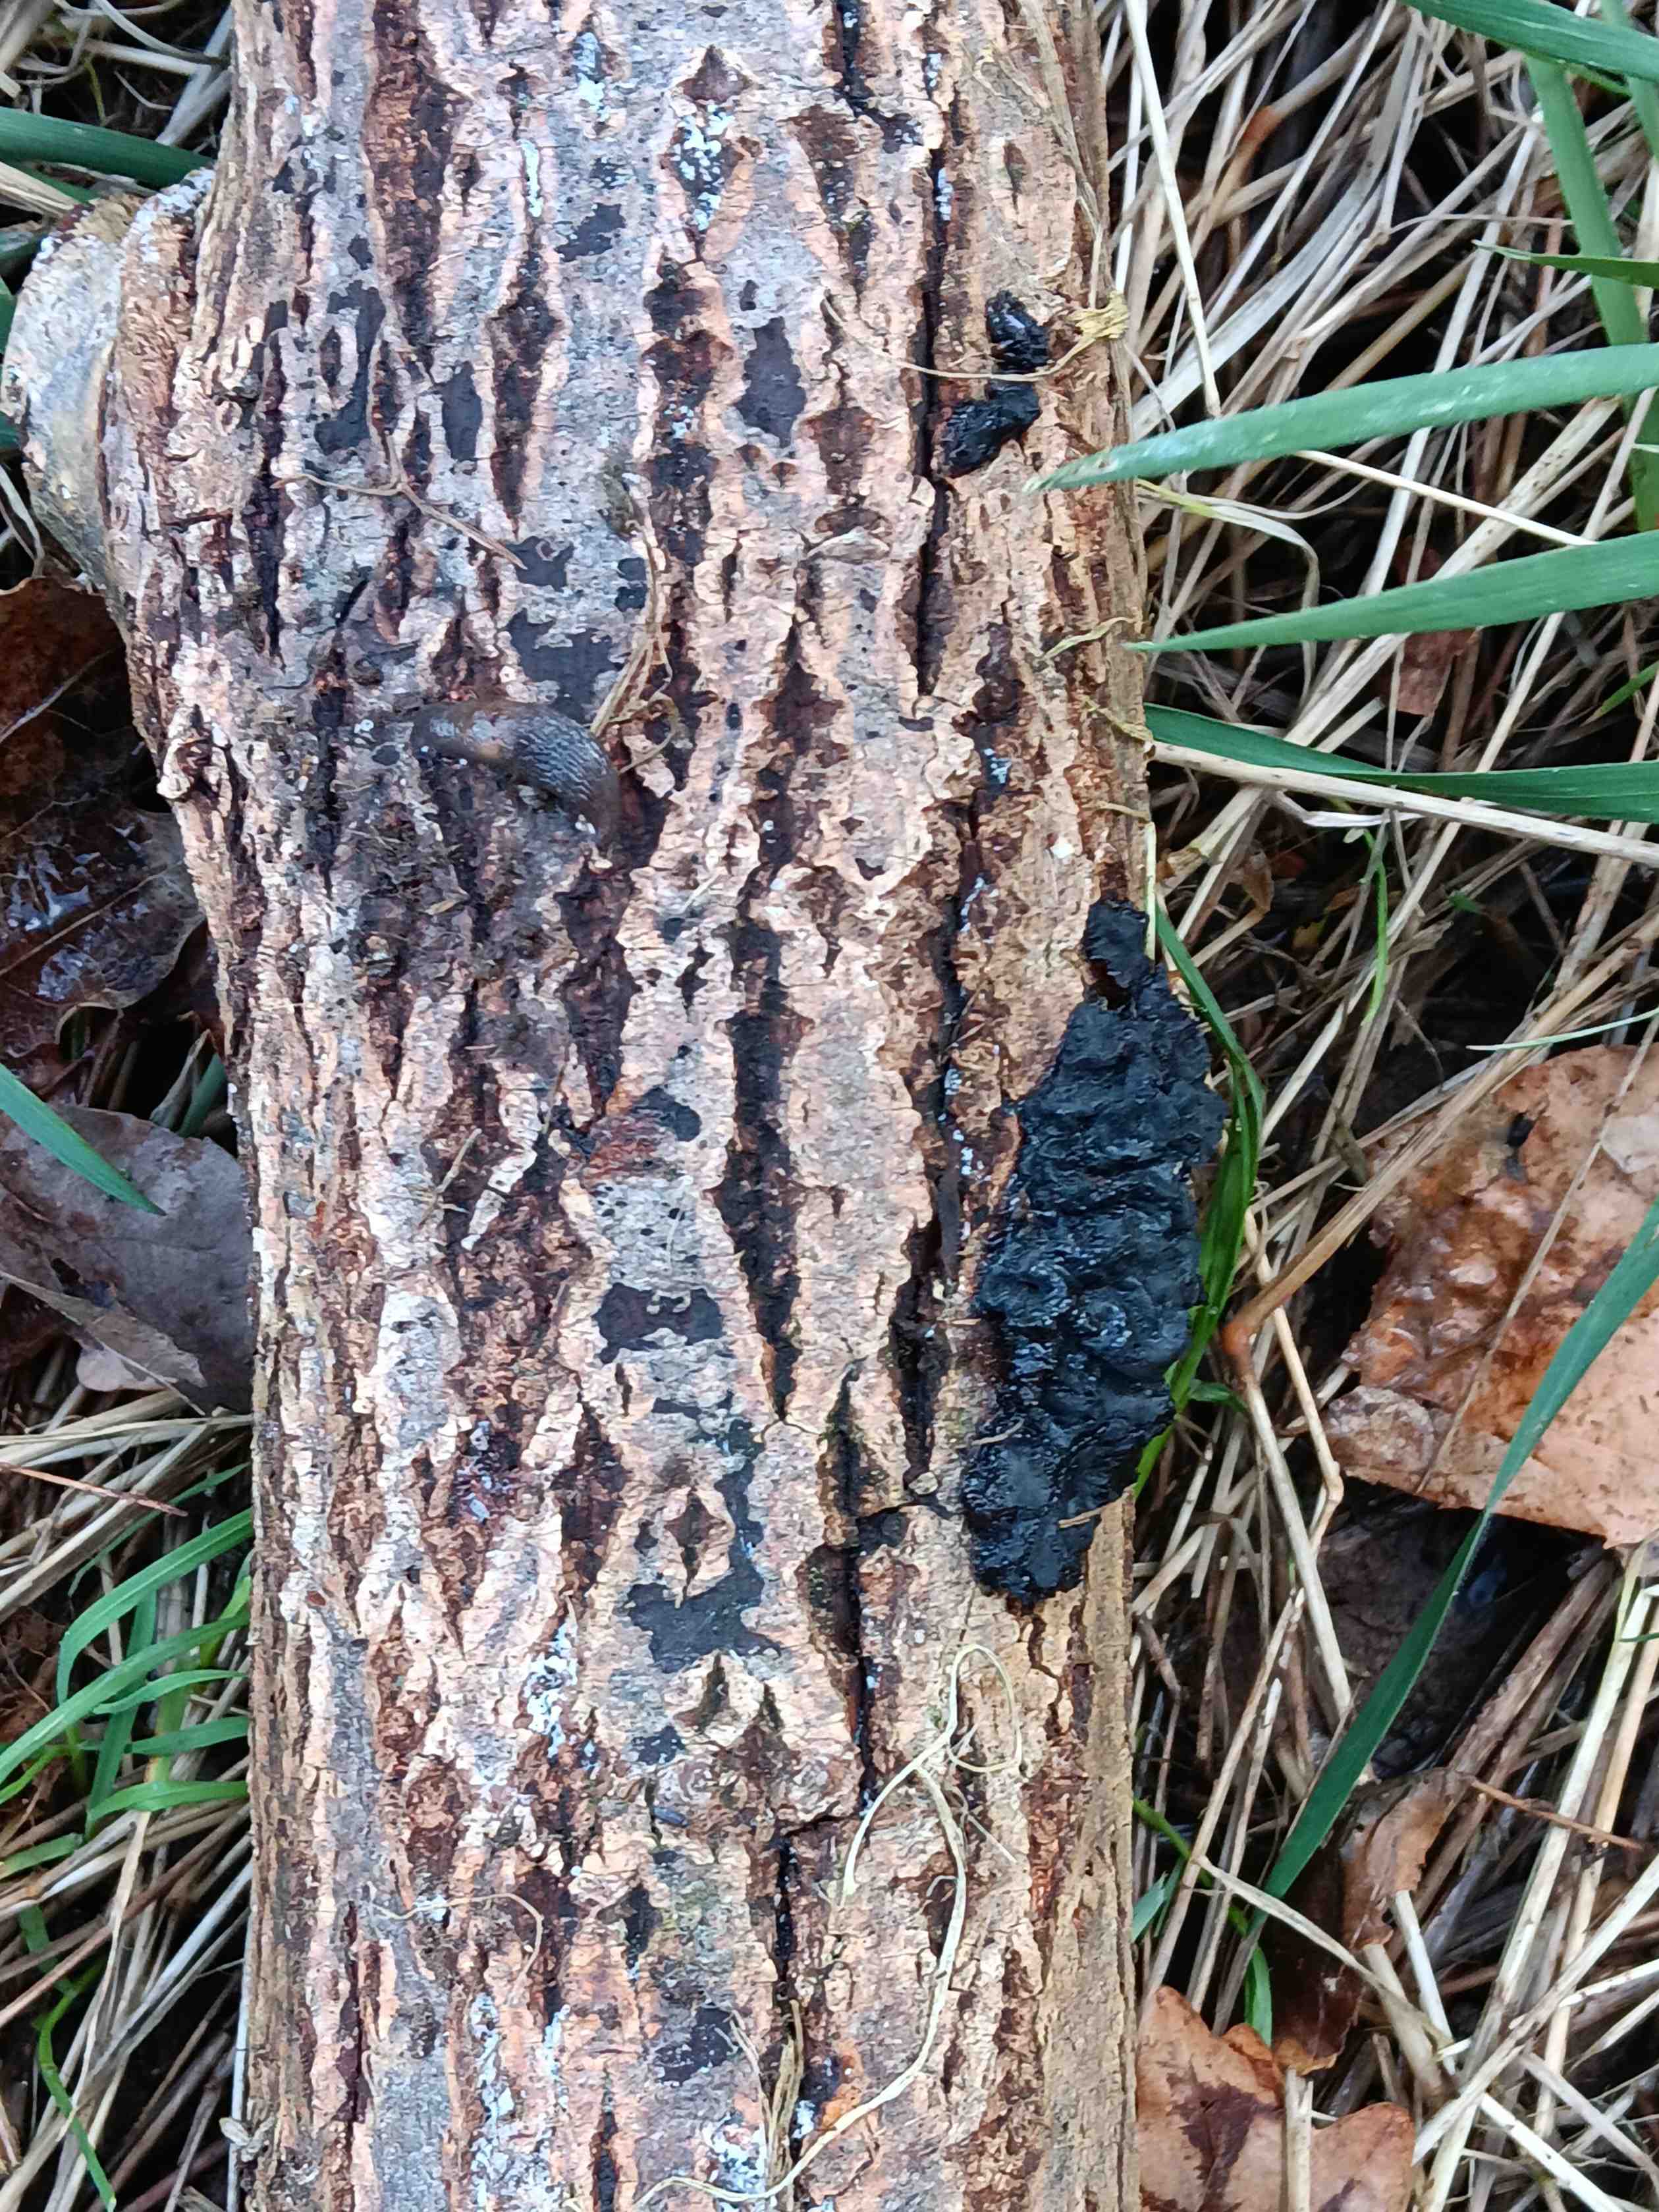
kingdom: Fungi
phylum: Basidiomycota
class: Agaricomycetes
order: Auriculariales
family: Auriculariaceae
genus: Exidia
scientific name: Exidia nigricans
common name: almindelig bævretop
